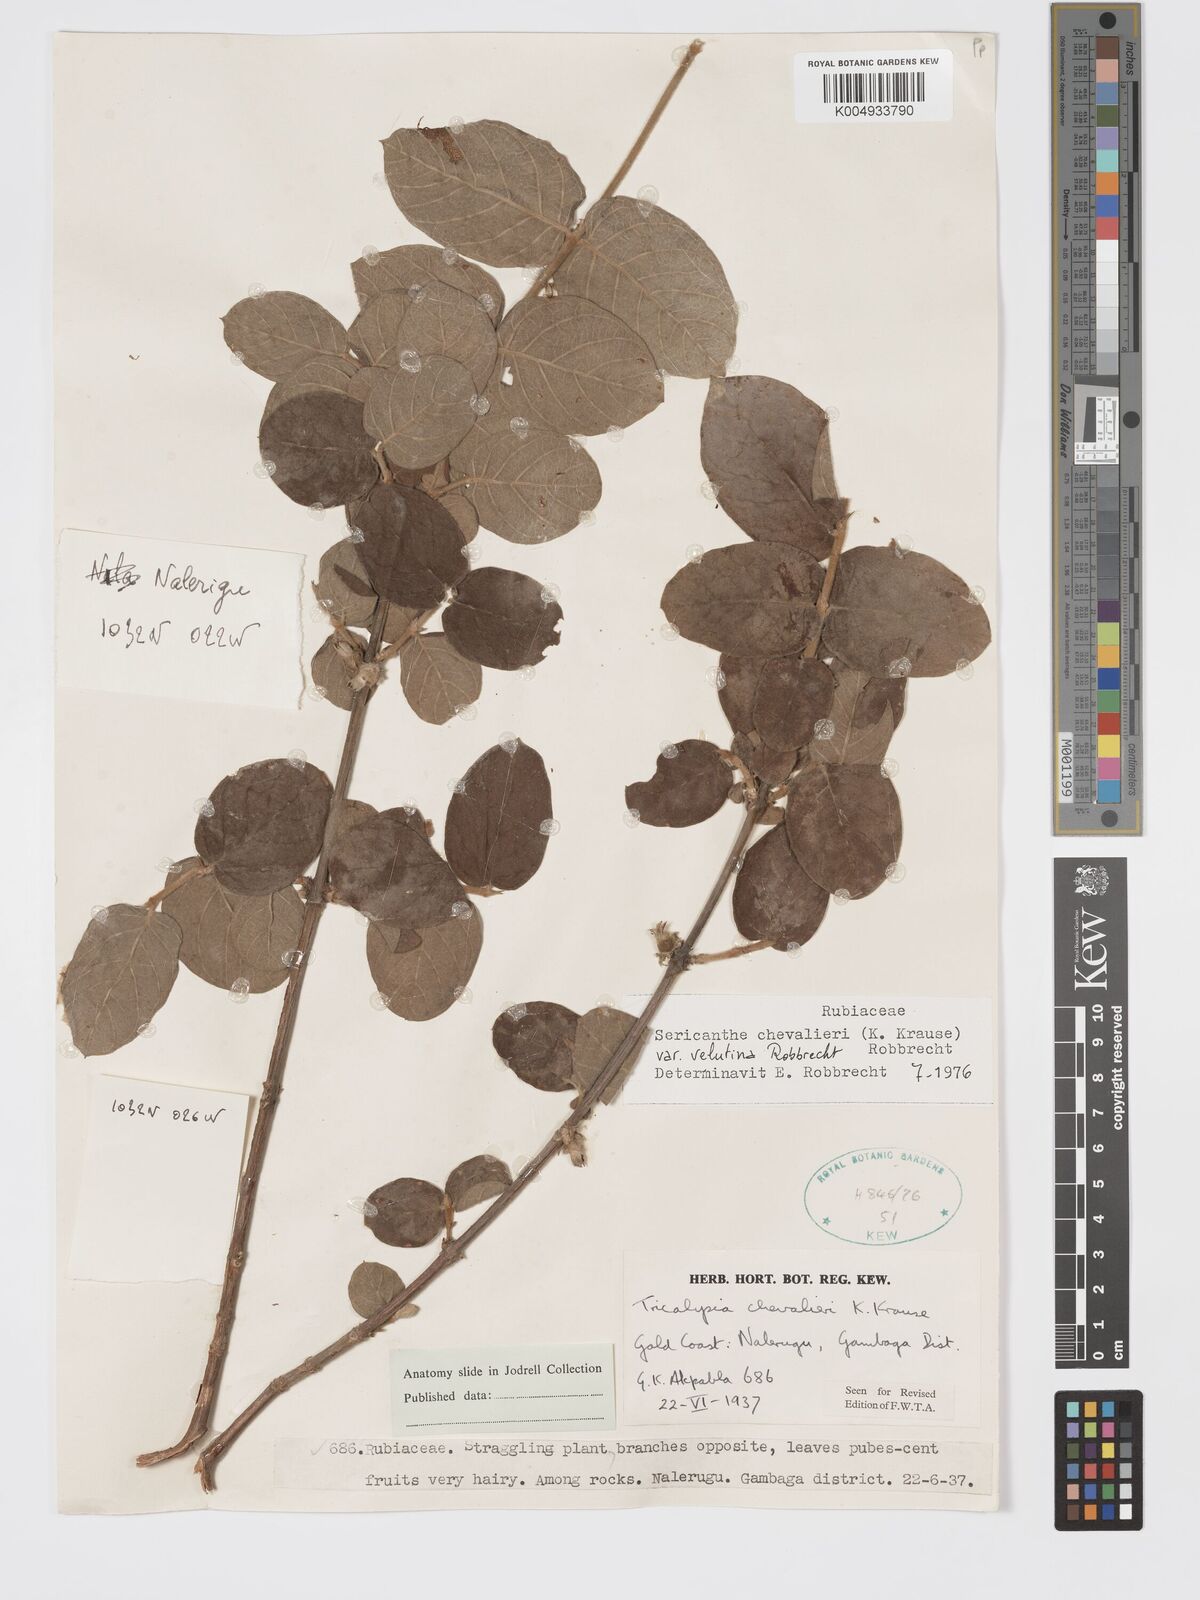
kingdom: Plantae
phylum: Tracheophyta
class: Magnoliopsida
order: Gentianales
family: Rubiaceae
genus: Sericanthe
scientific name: Sericanthe chevalieri
